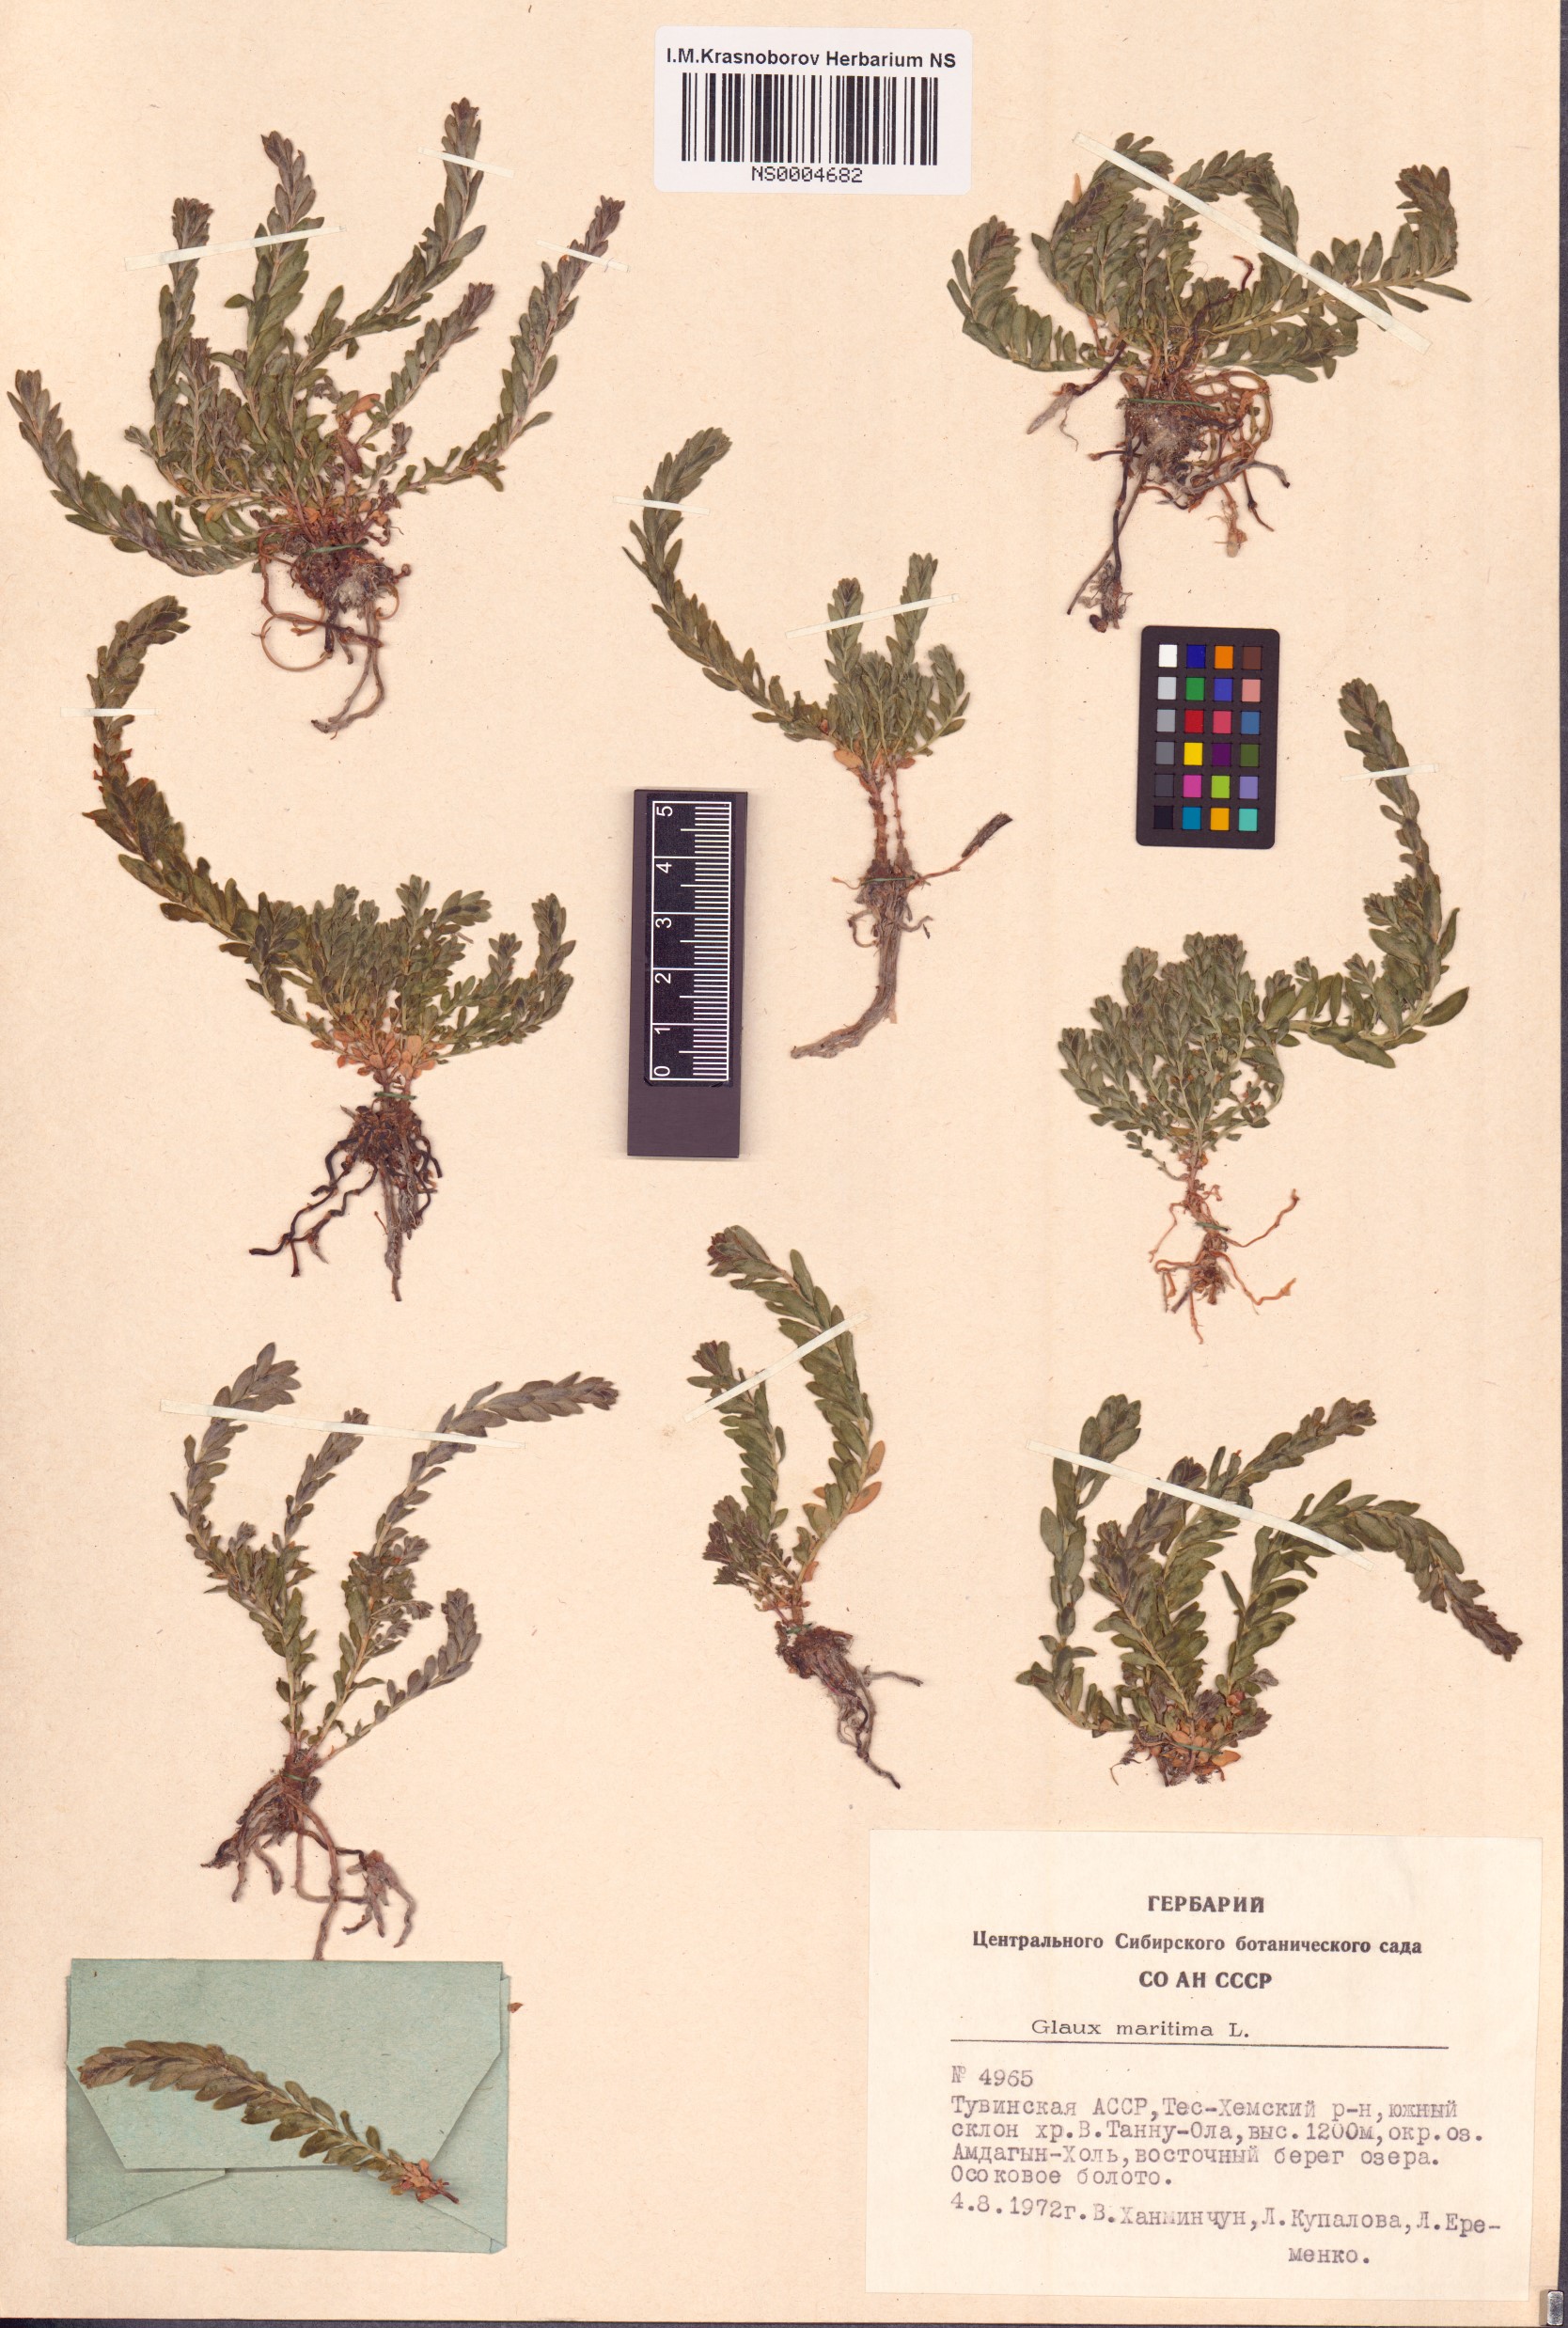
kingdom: Plantae
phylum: Tracheophyta
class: Magnoliopsida
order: Ericales
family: Primulaceae
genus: Lysimachia
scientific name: Lysimachia maritima
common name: Sea milkwort
